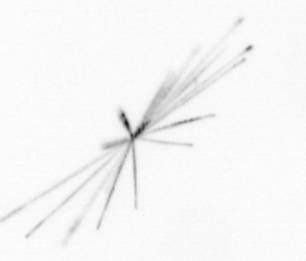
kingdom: Chromista
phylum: Ochrophyta
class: Bacillariophyceae
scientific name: Bacillariophyceae
